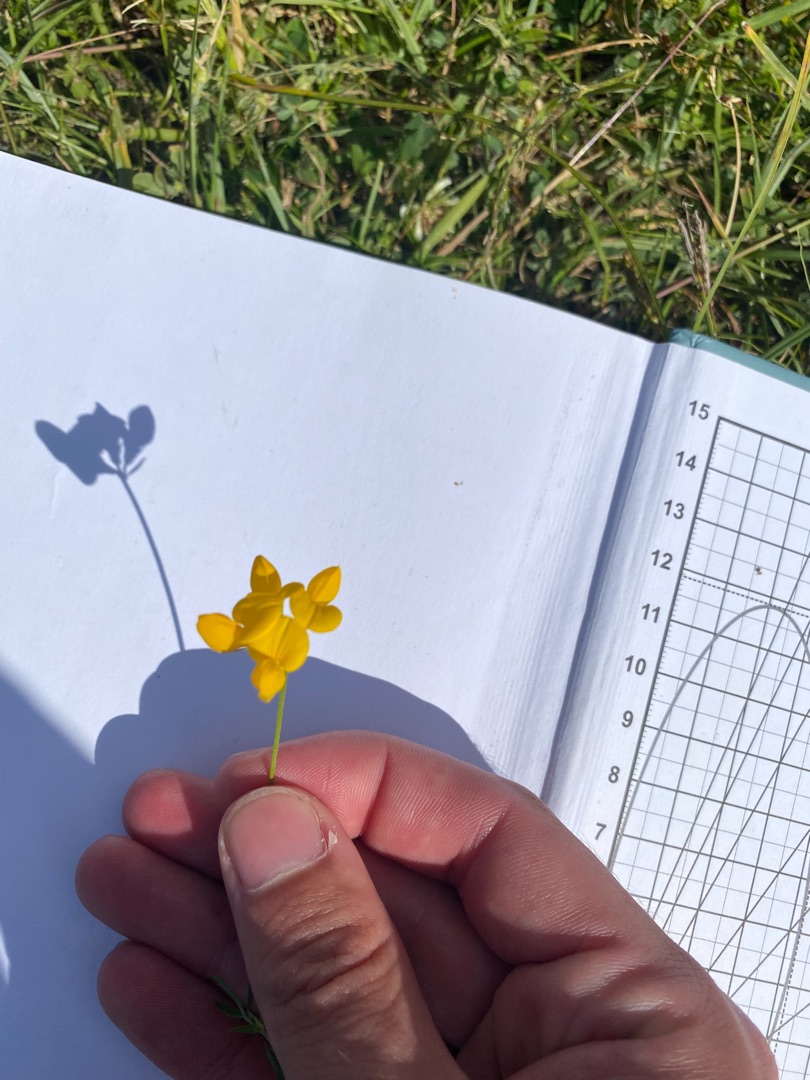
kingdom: Plantae
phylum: Tracheophyta
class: Magnoliopsida
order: Fabales
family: Fabaceae
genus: Lotus
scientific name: Lotus tenuis
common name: Smalbladet kællingetand
